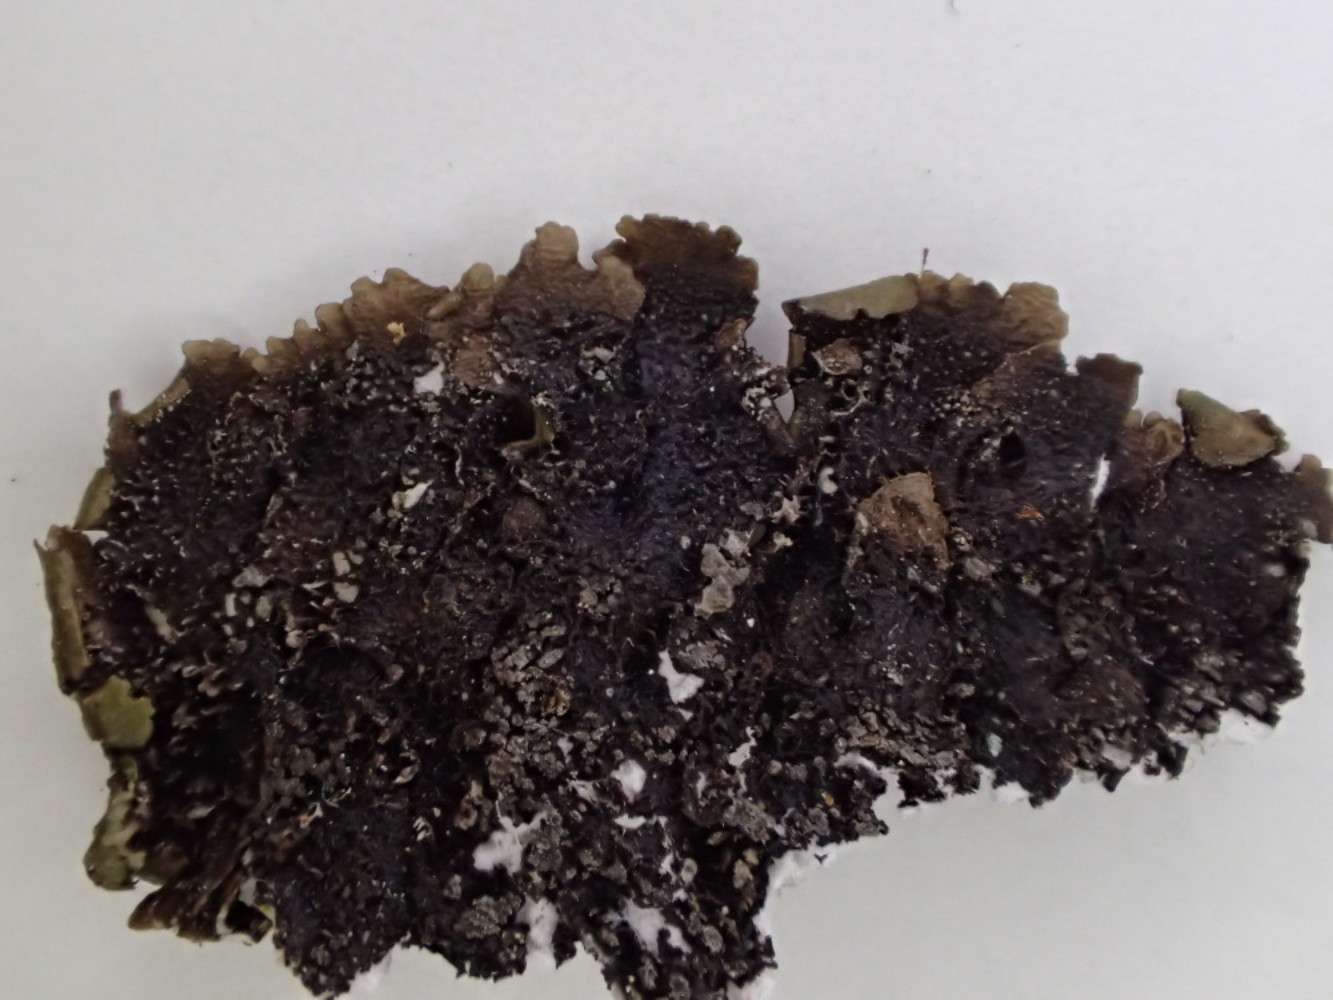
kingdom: Fungi
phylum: Ascomycota
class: Lecanoromycetes
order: Lecanorales
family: Parmeliaceae
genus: Melanelixia
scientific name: Melanelixia subaurifera
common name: guldpudret skållav
